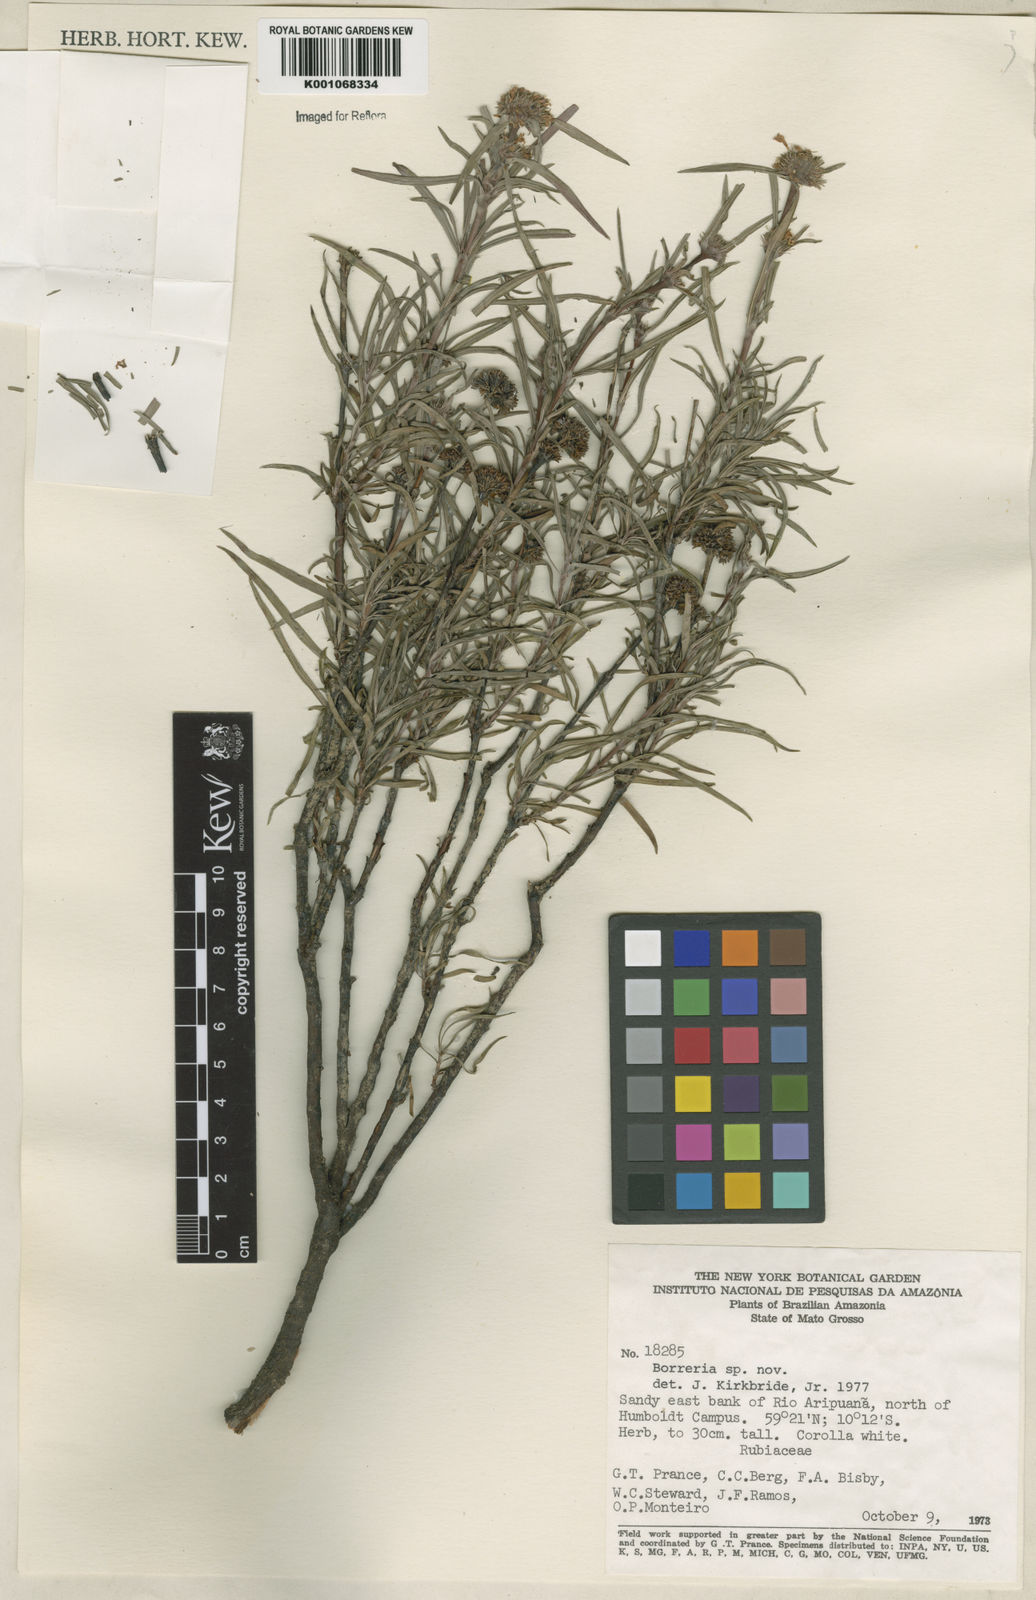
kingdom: Plantae
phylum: Tracheophyta
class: Magnoliopsida
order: Gentianales
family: Rubiaceae
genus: Spermacoce
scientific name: Spermacoce
